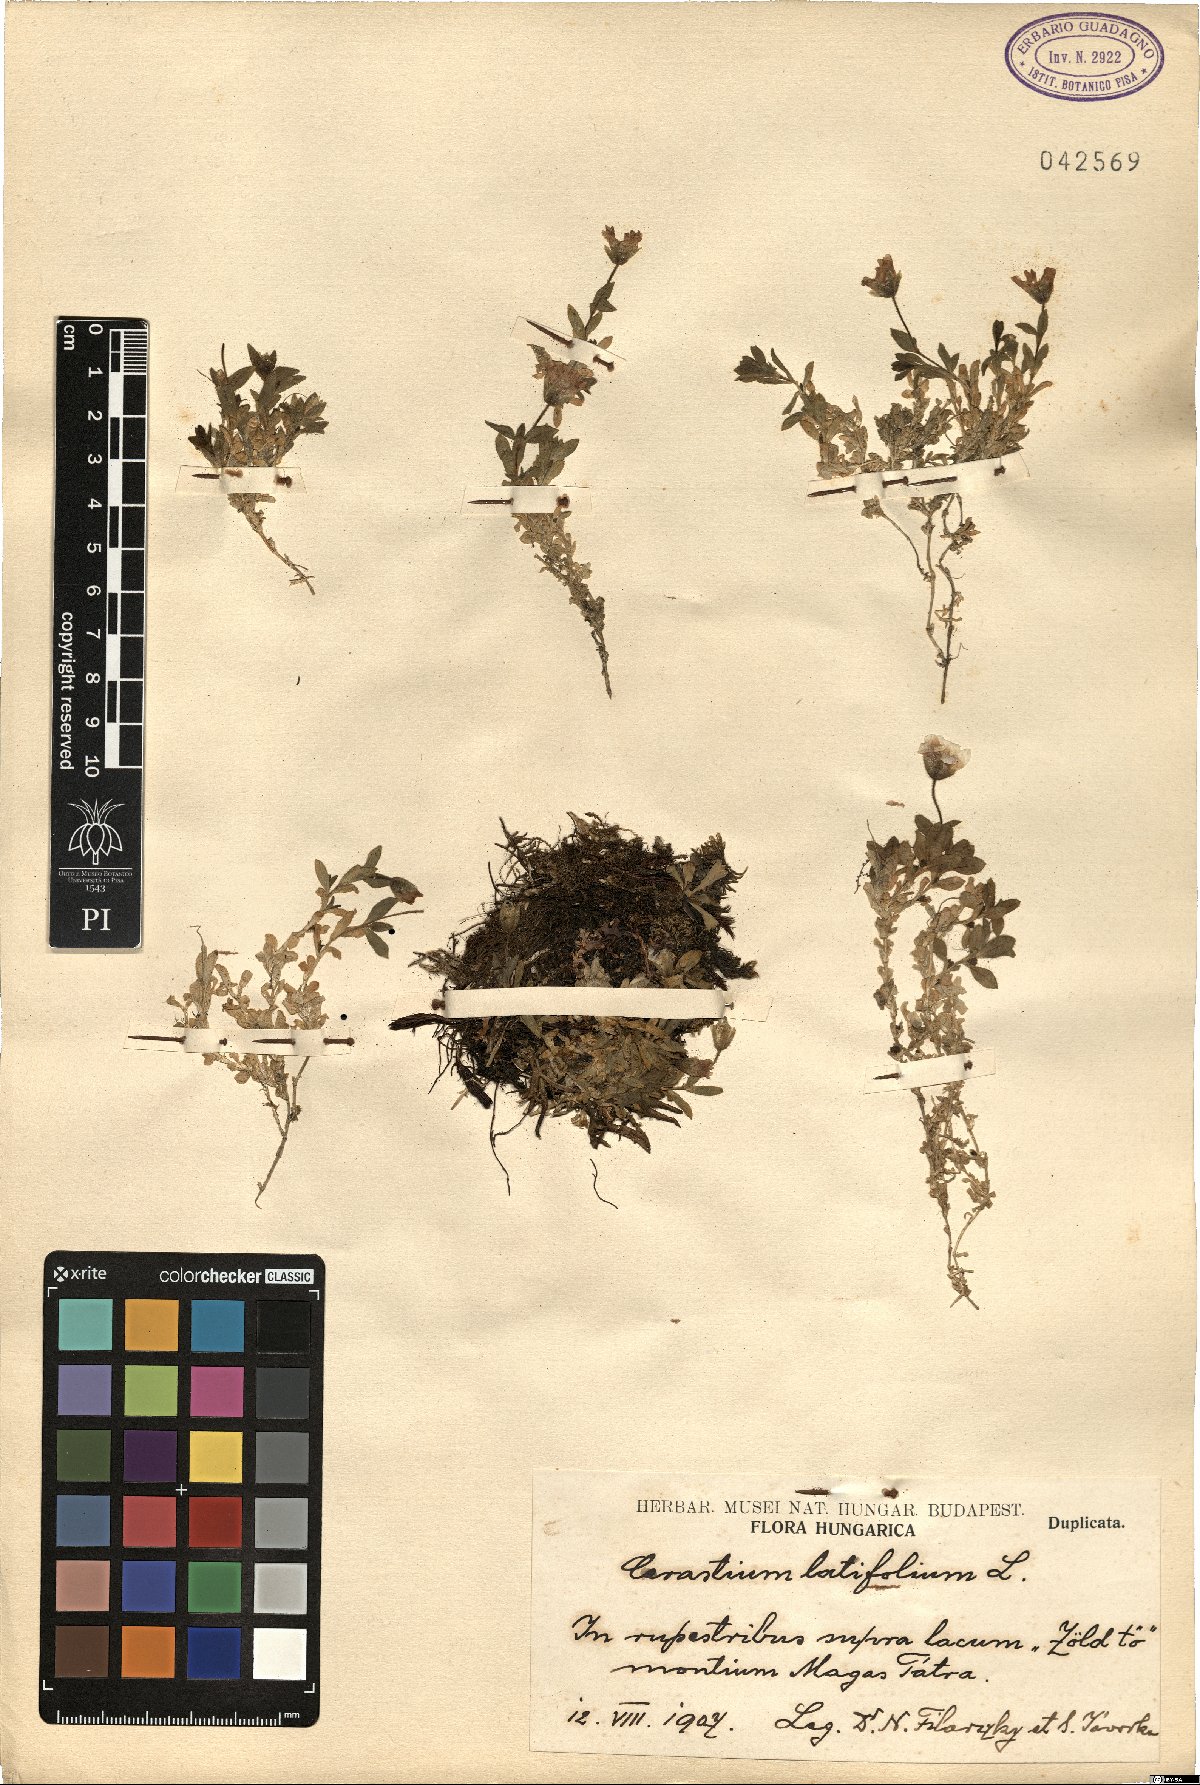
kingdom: Plantae
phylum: Tracheophyta
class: Magnoliopsida
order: Caryophyllales
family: Caryophyllaceae
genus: Cerastium
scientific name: Cerastium latifolium
